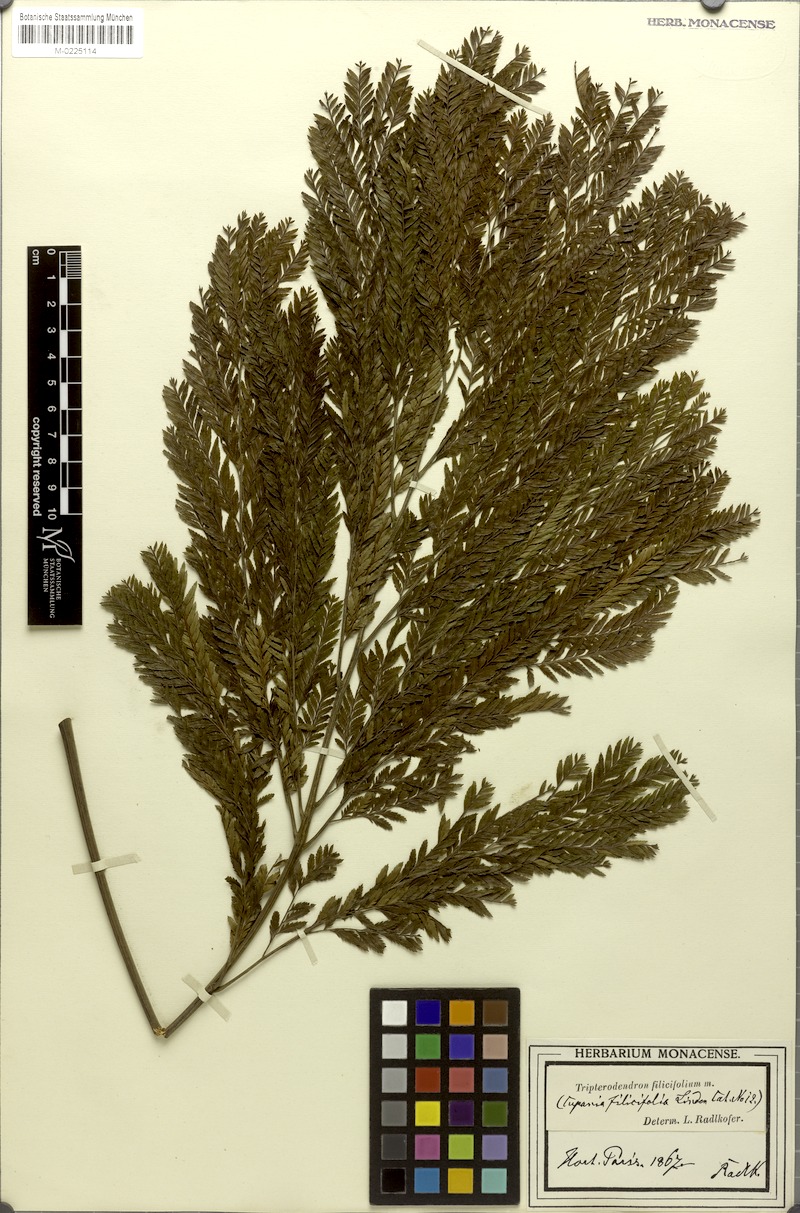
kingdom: Plantae
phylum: Tracheophyta
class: Magnoliopsida
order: Sapindales
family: Sapindaceae
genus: Tripterodendron
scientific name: Tripterodendron filicifolium
